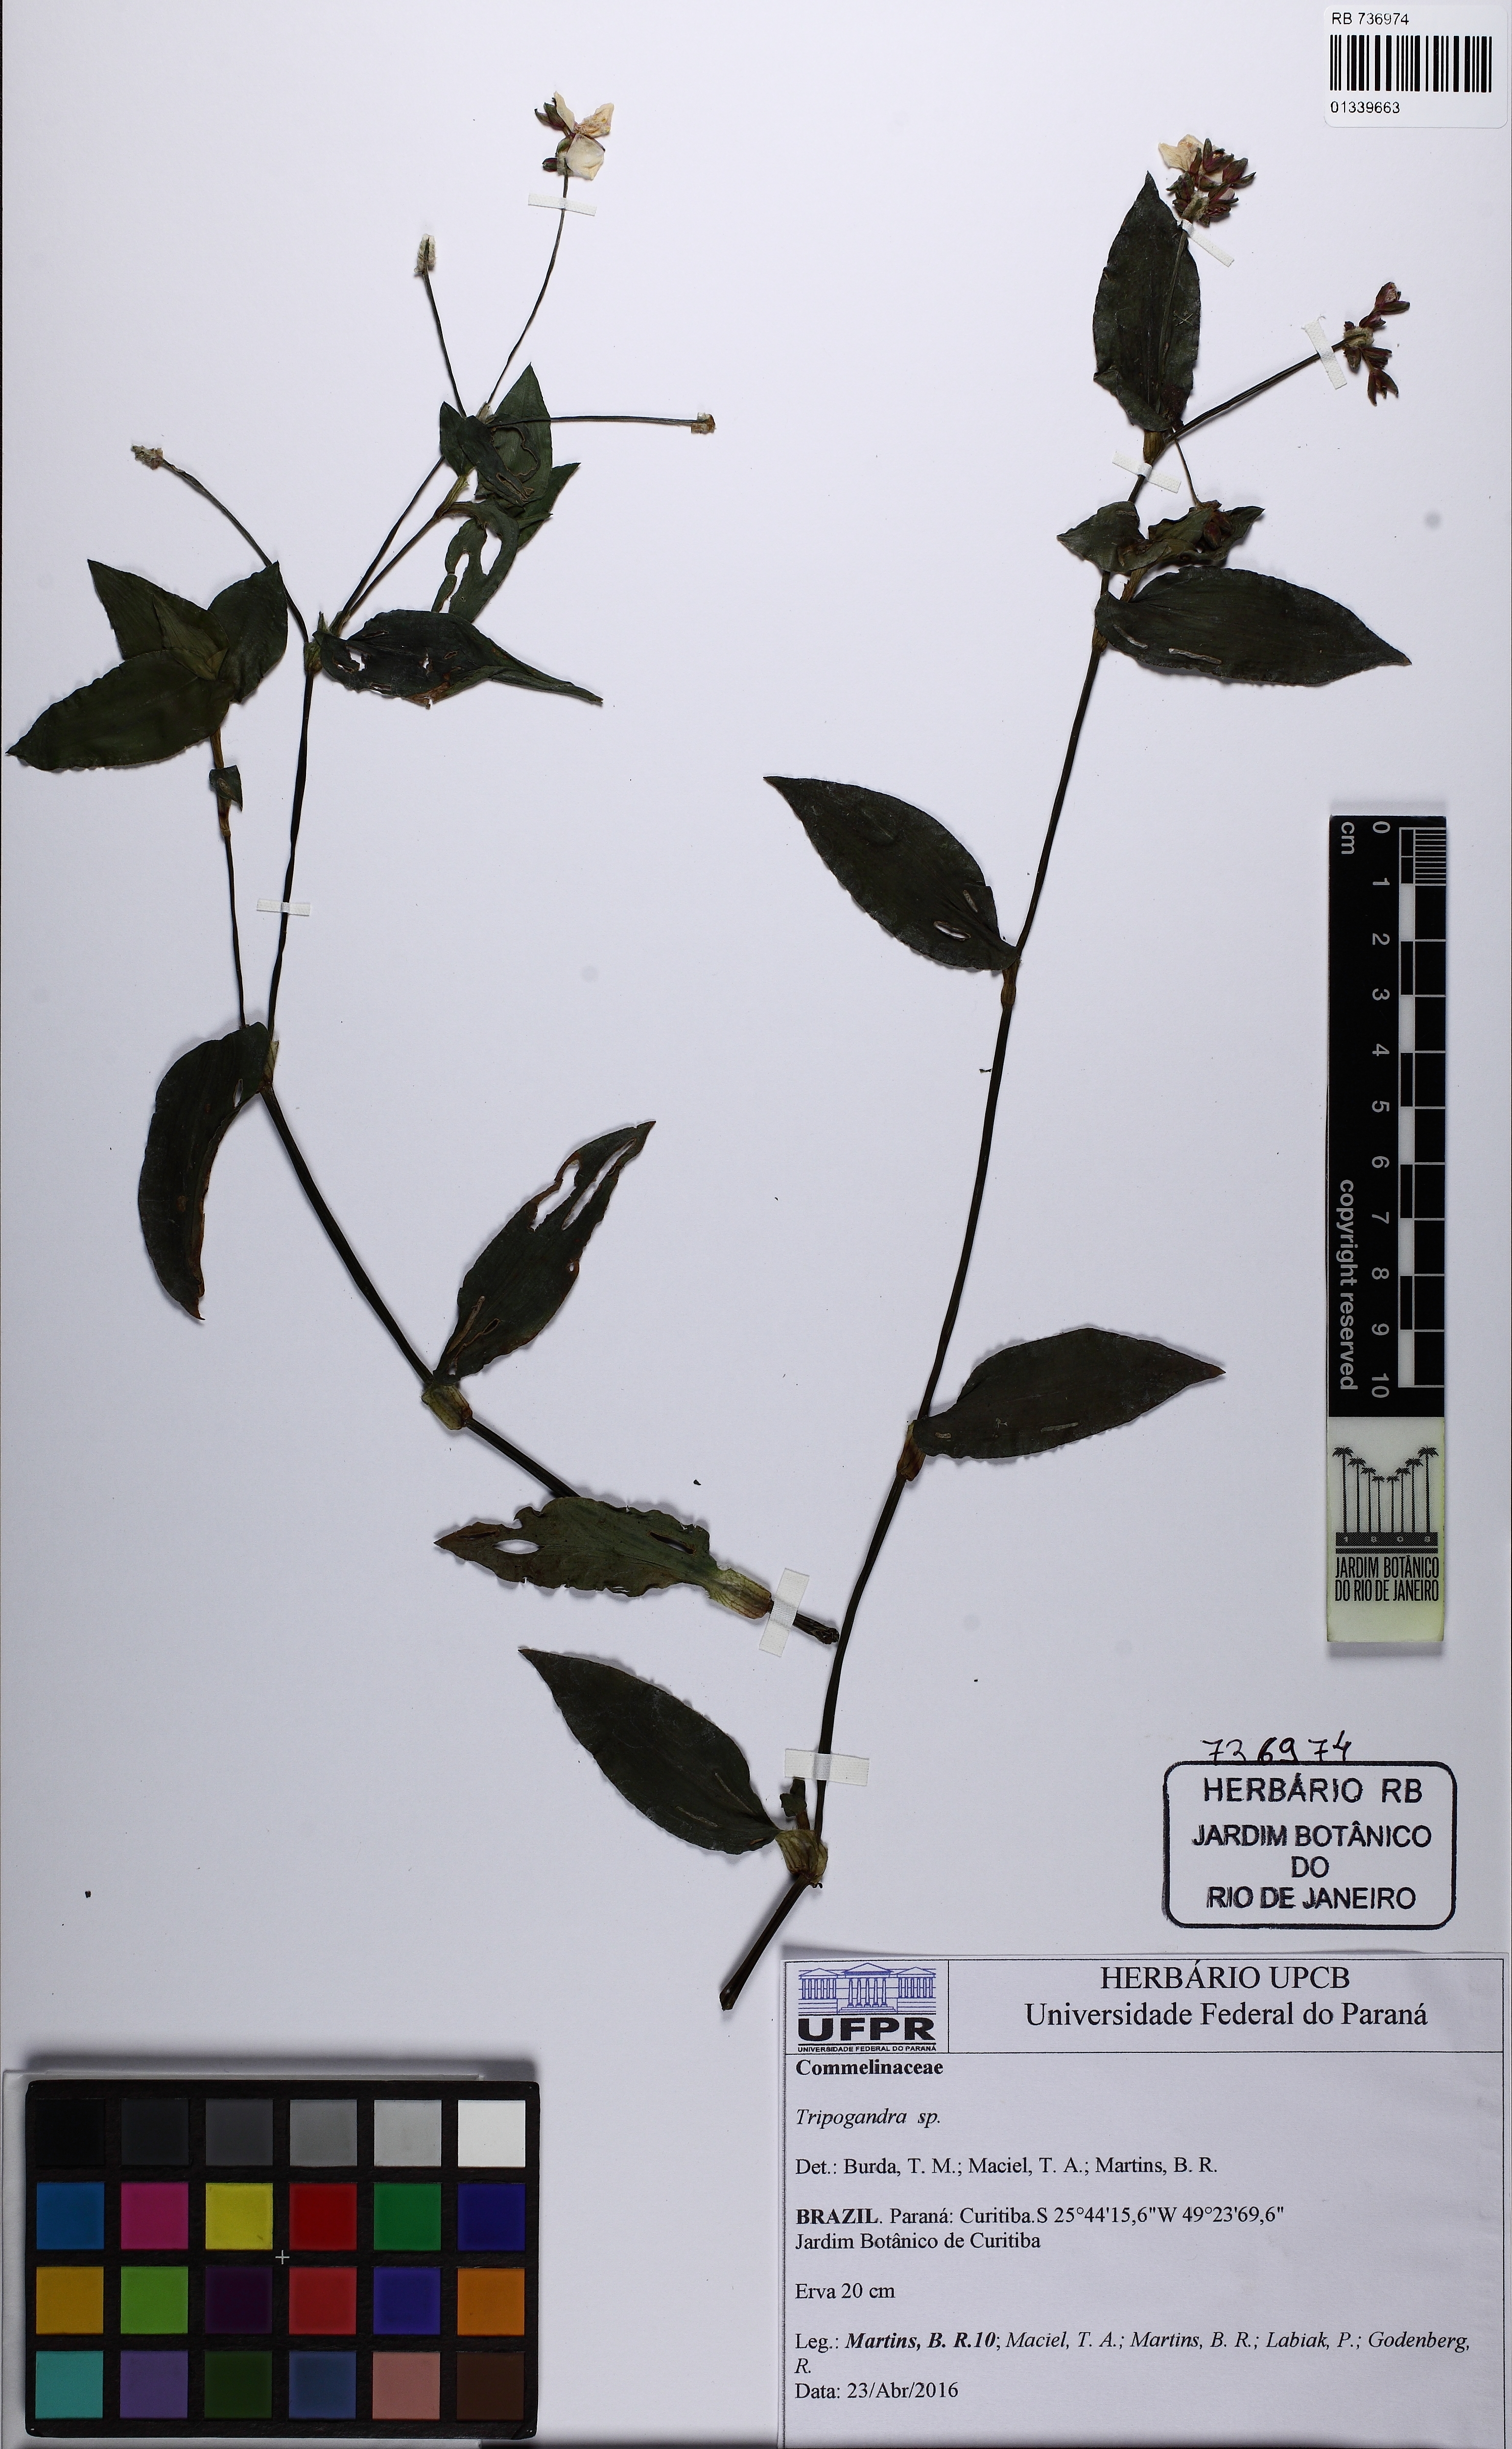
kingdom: Plantae
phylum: Tracheophyta
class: Liliopsida
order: Commelinales
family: Commelinaceae
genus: Callisia
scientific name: Callisia diuretica
